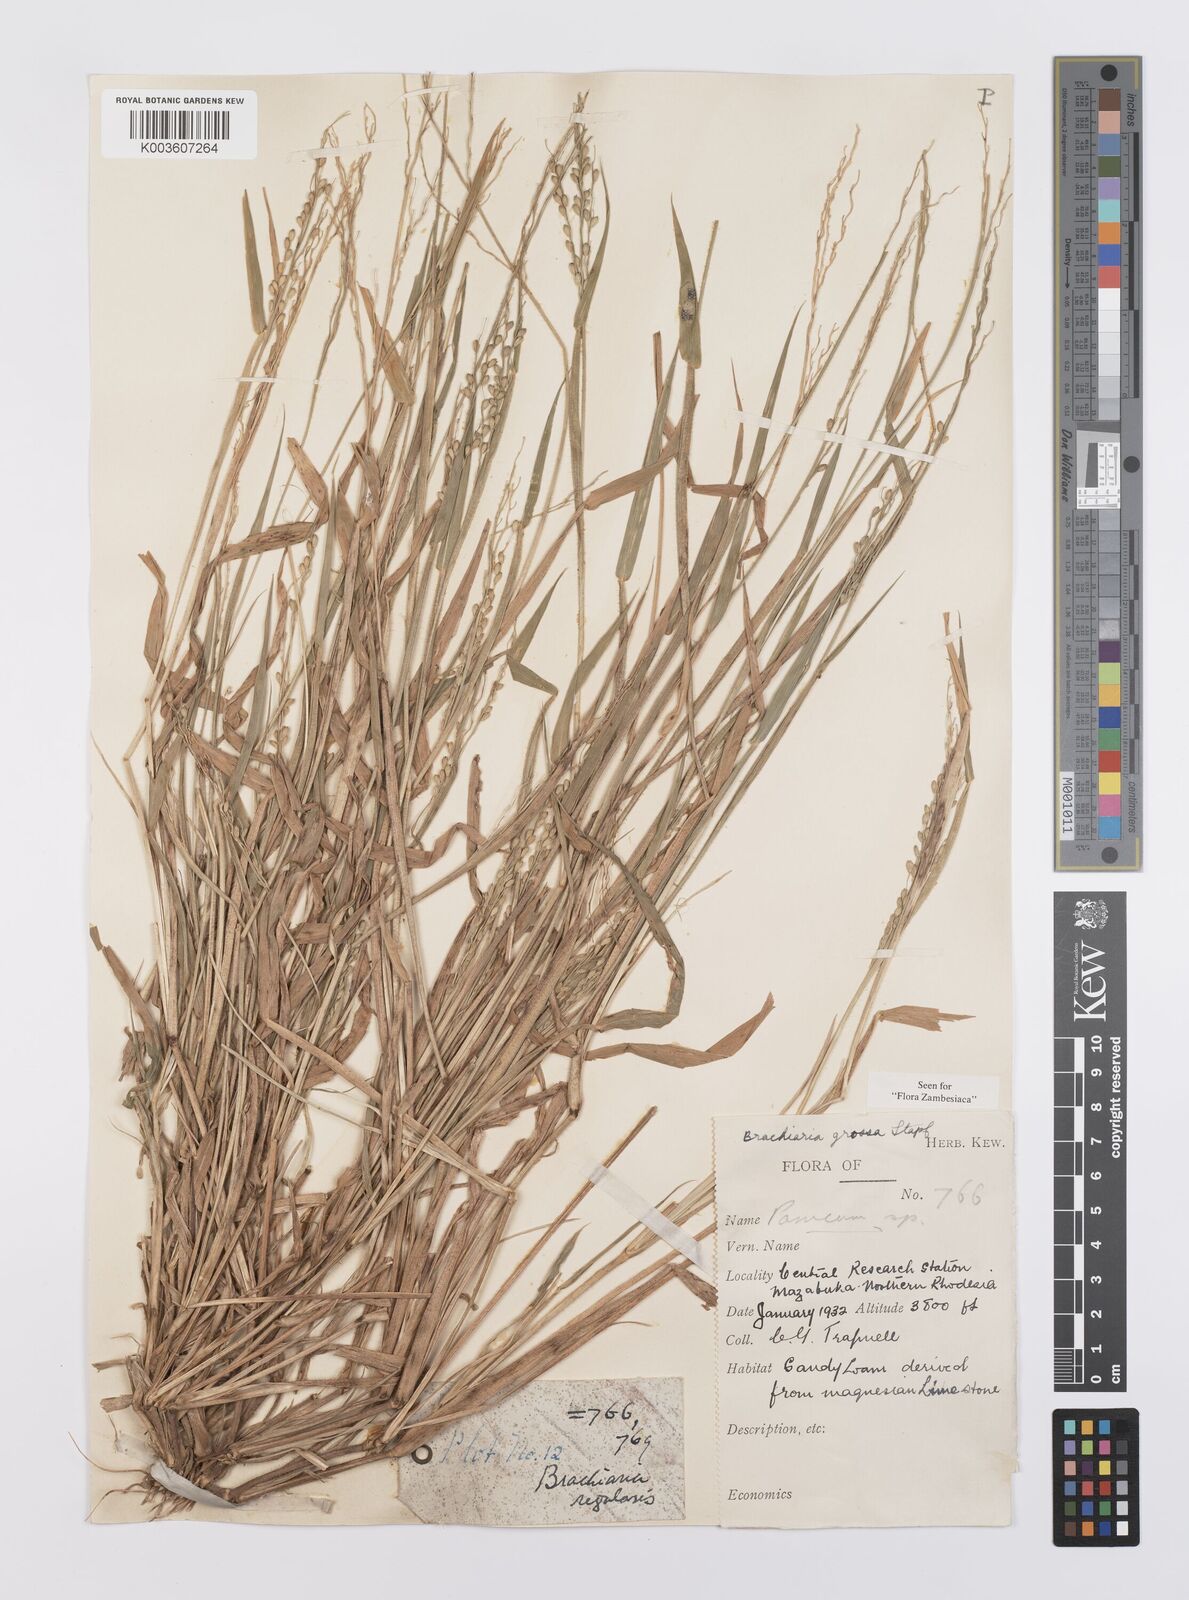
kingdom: Plantae
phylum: Tracheophyta
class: Liliopsida
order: Poales
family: Poaceae
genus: Urochloa
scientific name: Urochloa Brachiaria grossa
